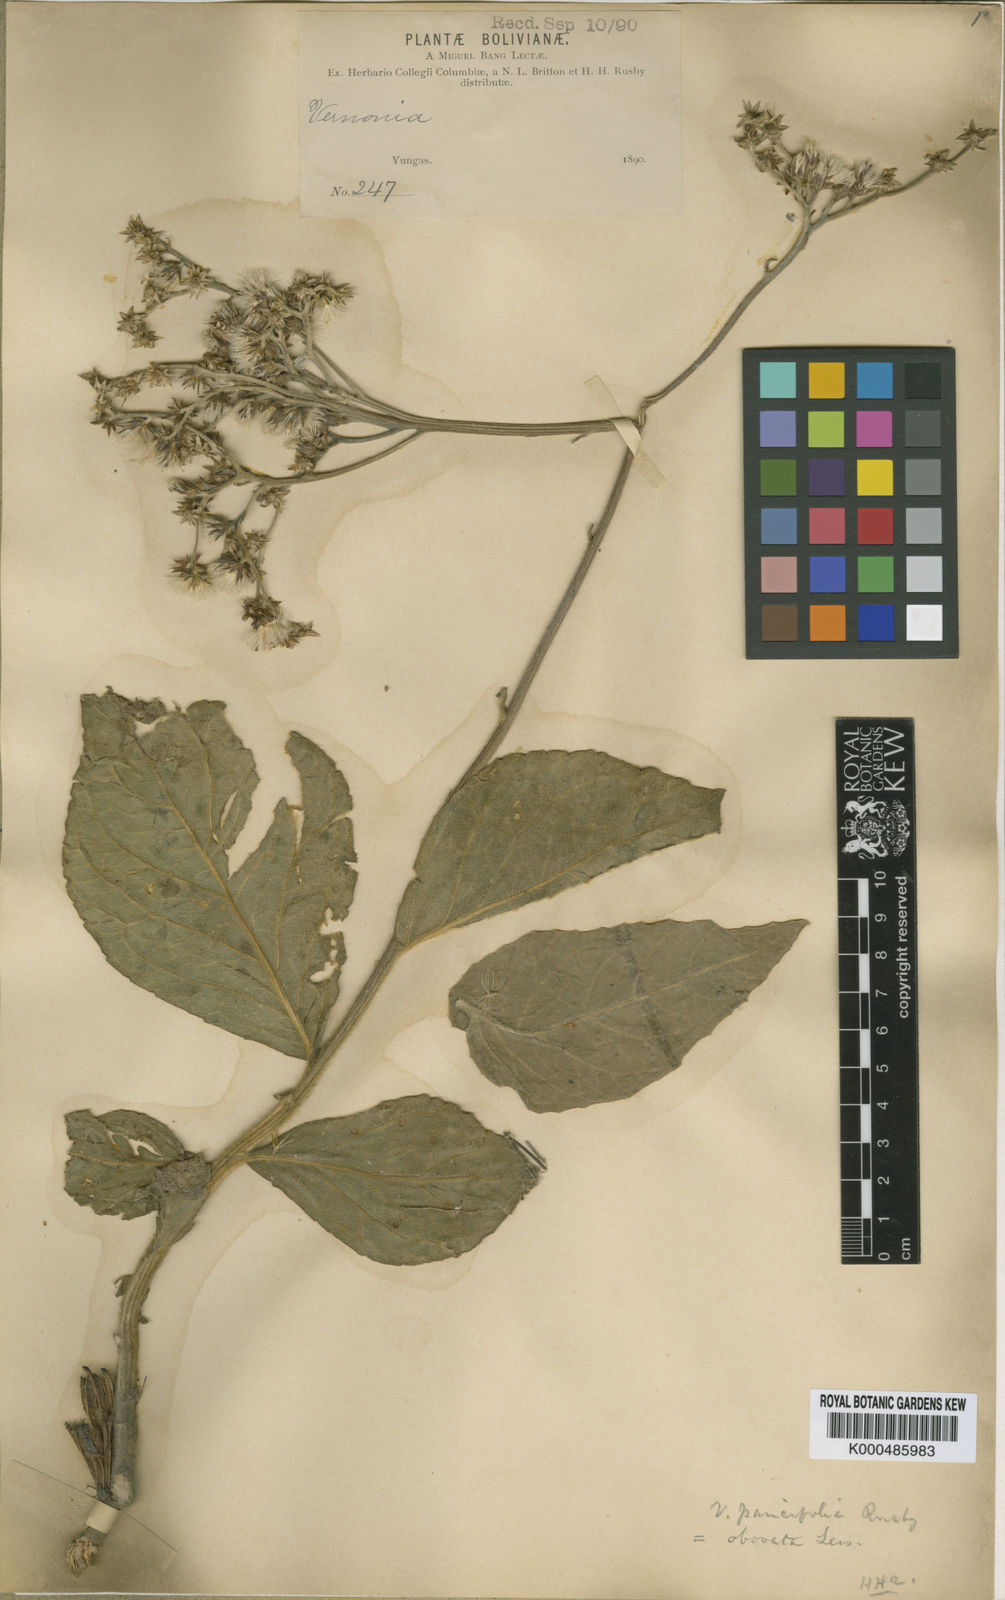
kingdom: Plantae
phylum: Tracheophyta
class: Magnoliopsida
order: Asterales
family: Asteraceae
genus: Chrysolaena
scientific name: Chrysolaena obovata
